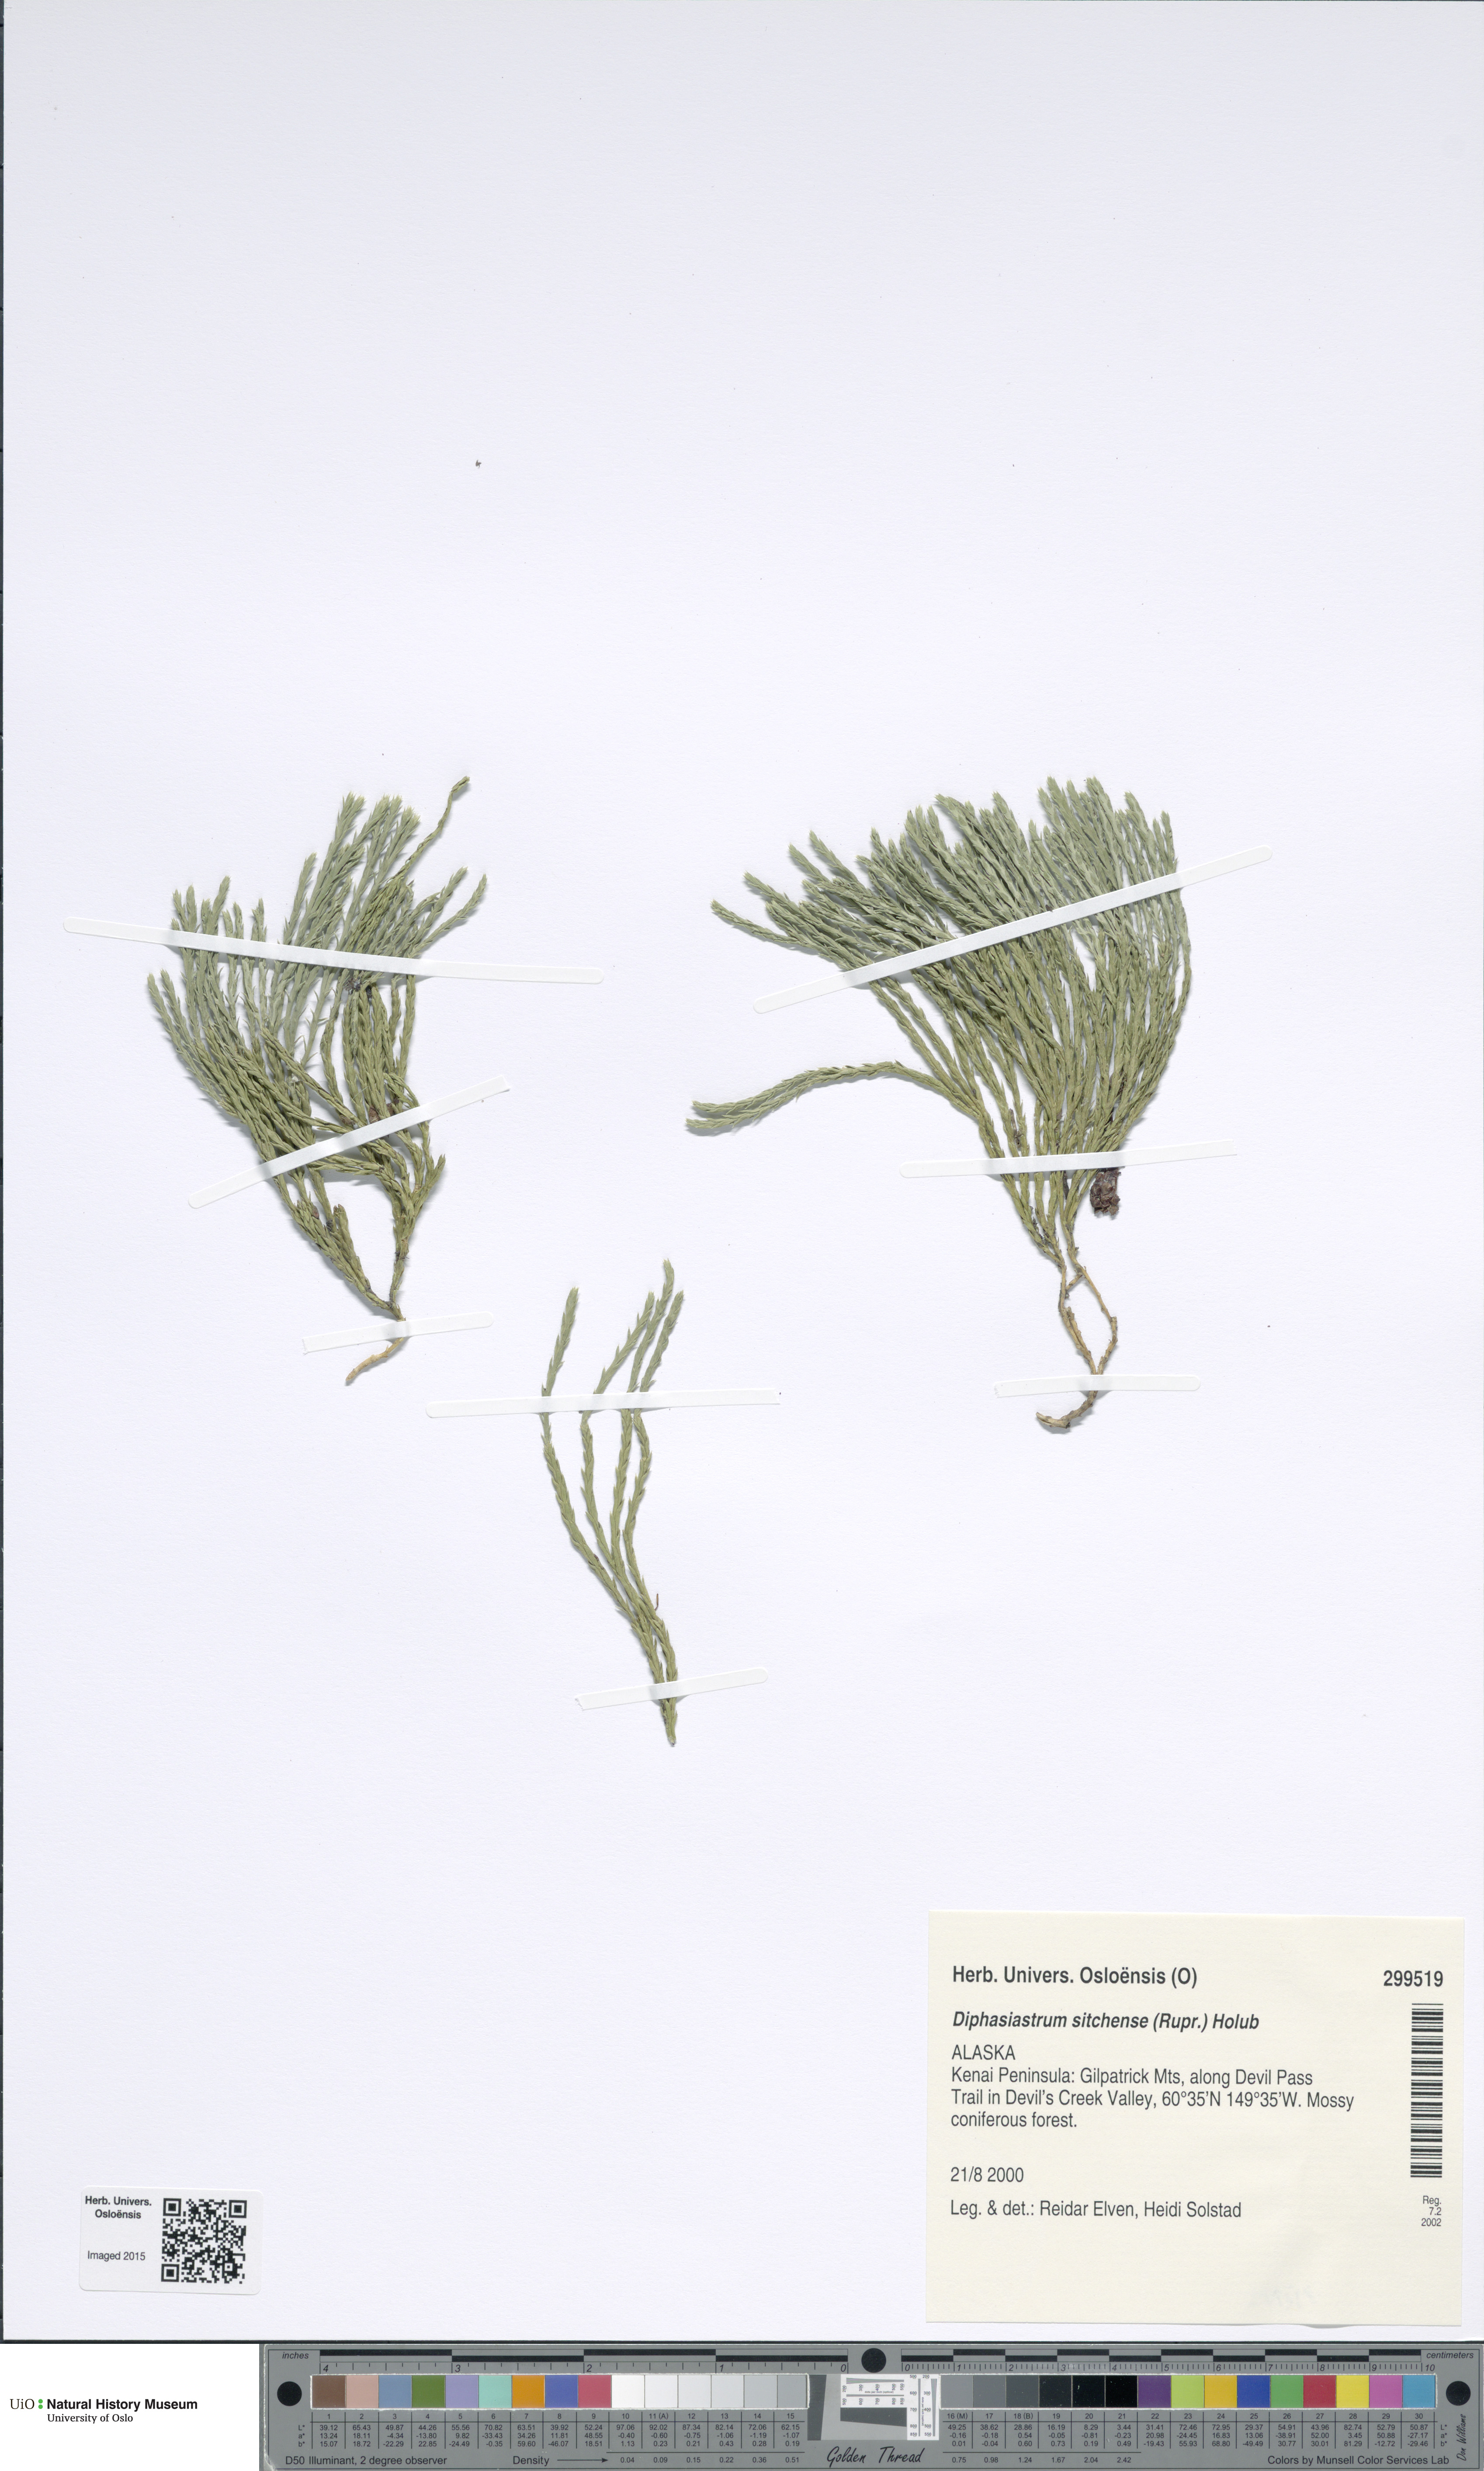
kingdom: Plantae
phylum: Tracheophyta
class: Lycopodiopsida
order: Lycopodiales
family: Lycopodiaceae
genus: Diphasiastrum
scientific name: Diphasiastrum sitchense
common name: Alaska clubmoss
